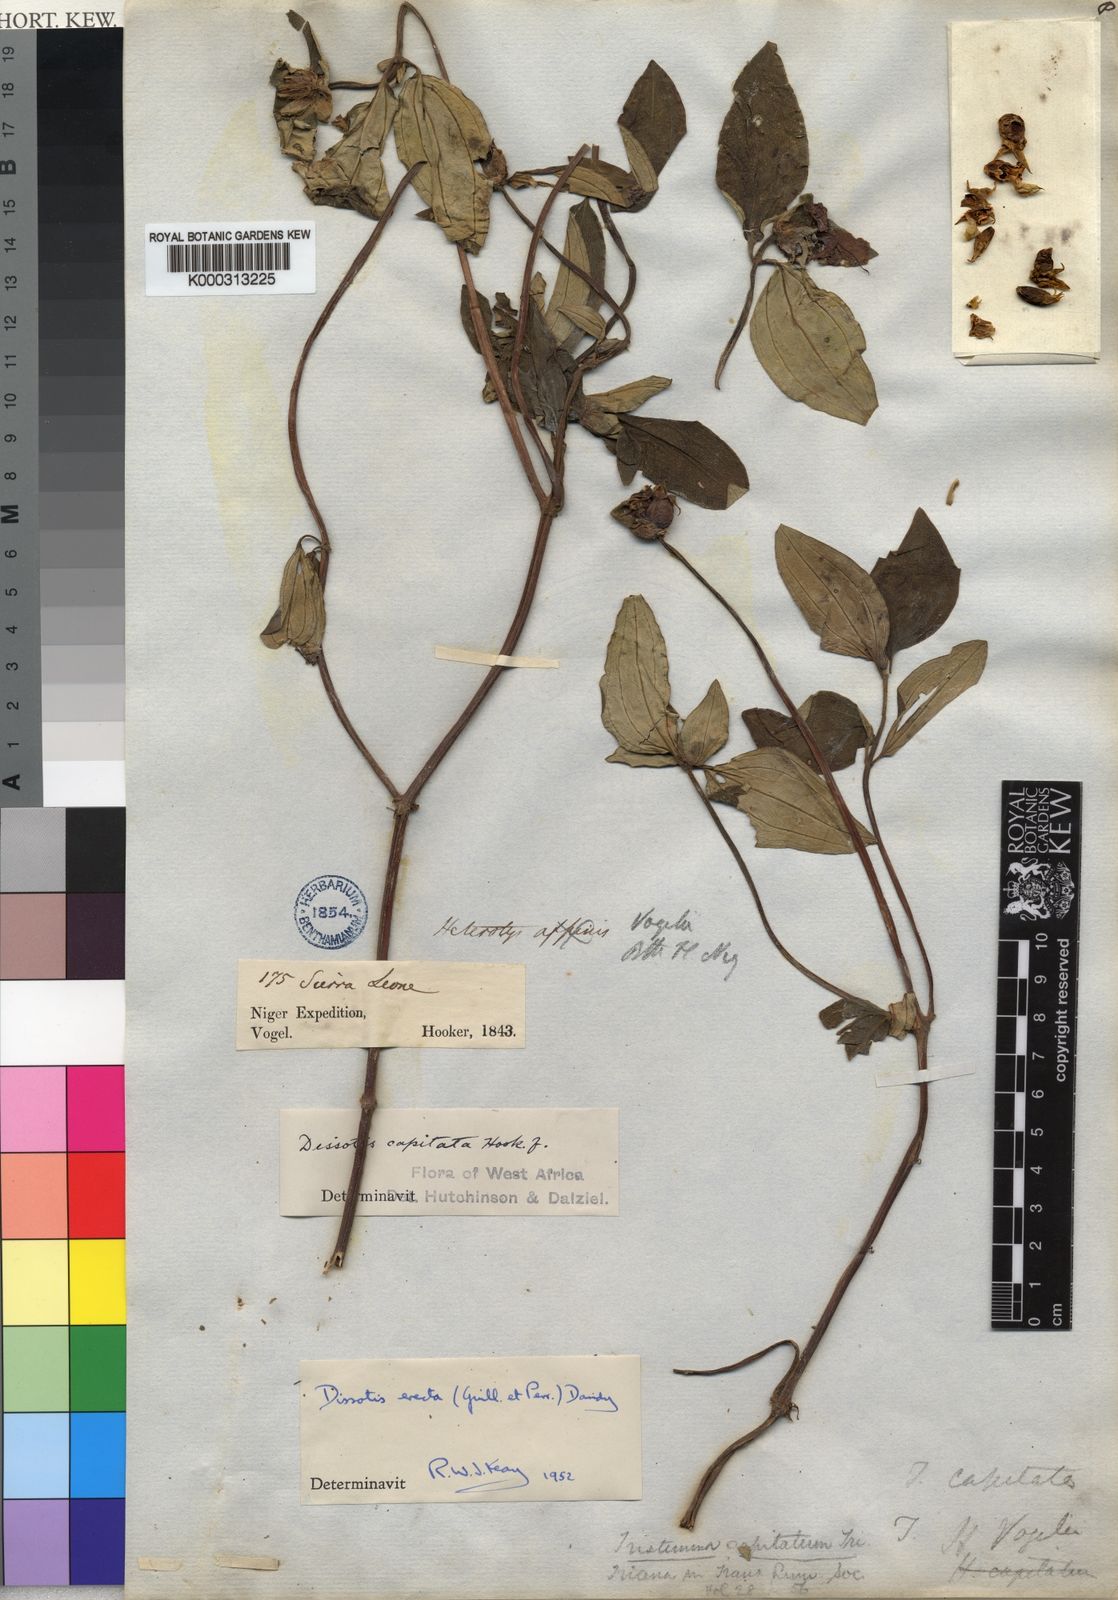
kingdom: Plantae
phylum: Tracheophyta
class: Magnoliopsida
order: Myrtales
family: Melastomataceae
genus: Melastomastrum
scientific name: Melastomastrum capitatum
